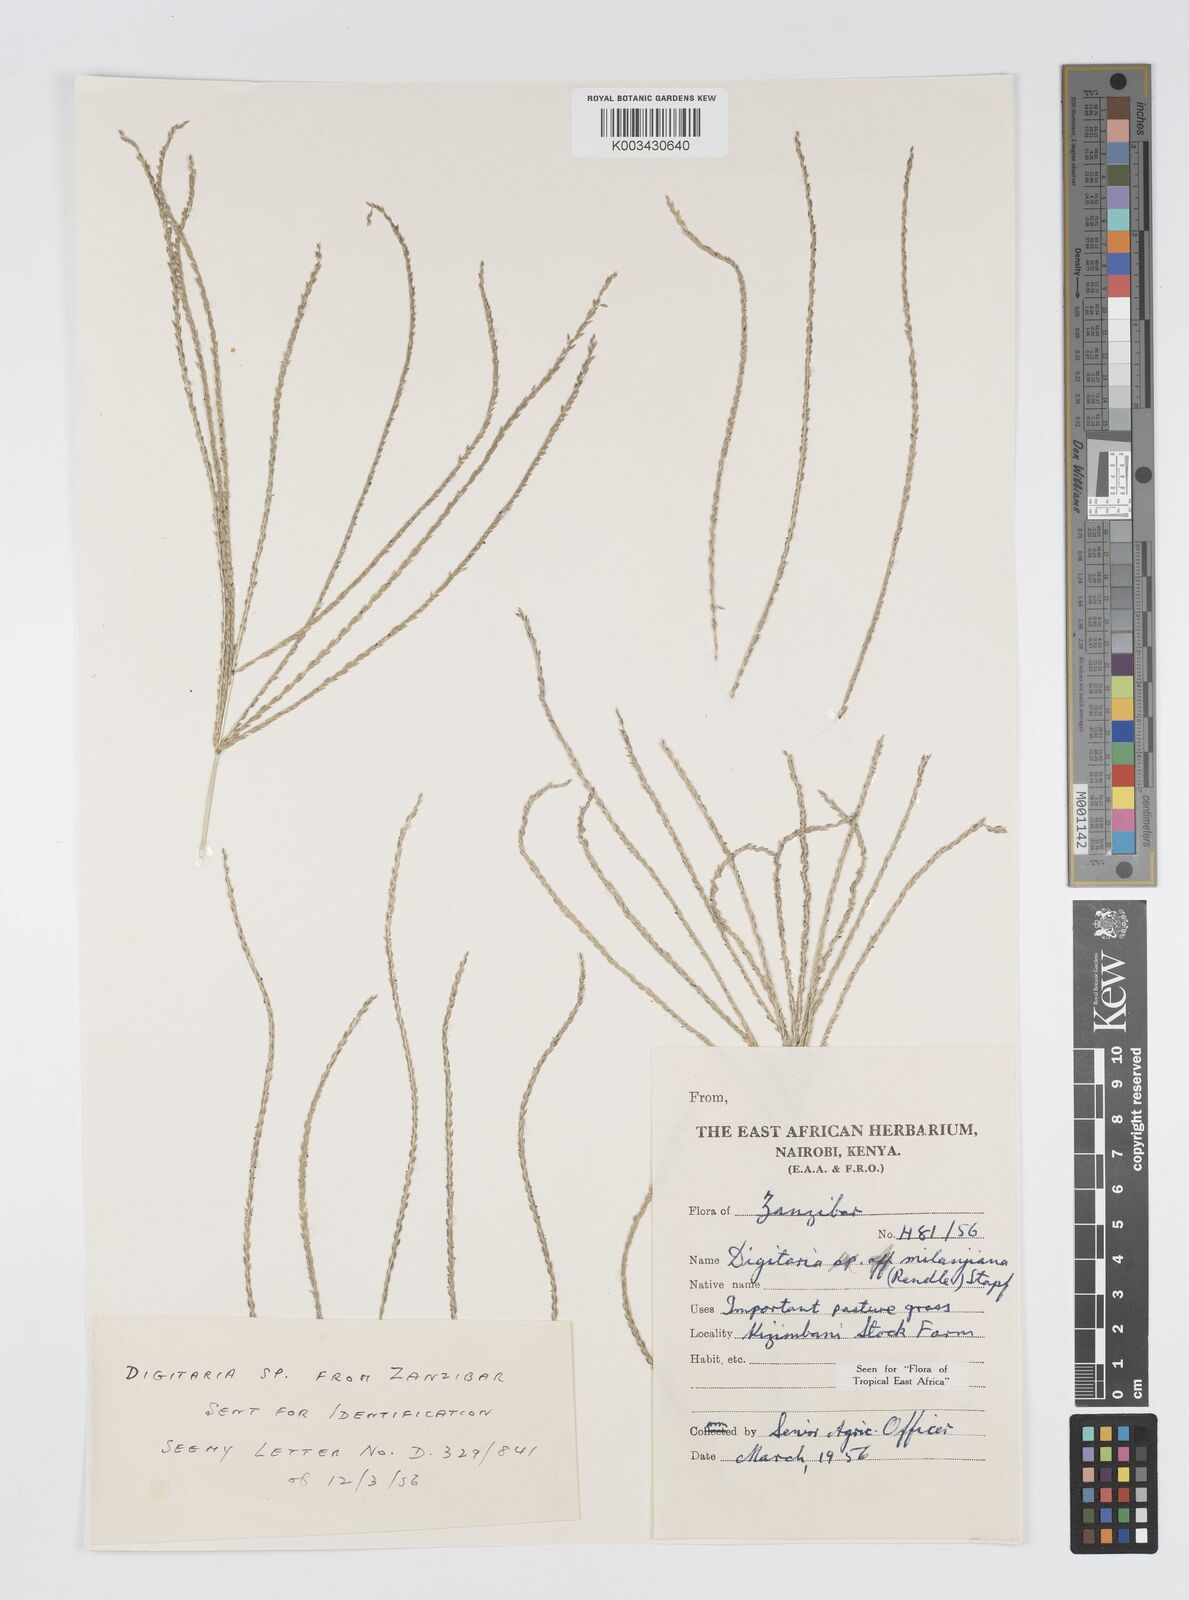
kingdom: Plantae
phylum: Tracheophyta
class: Liliopsida
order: Poales
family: Poaceae
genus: Digitaria
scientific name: Digitaria milanjiana
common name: Madagascar crabgrass
